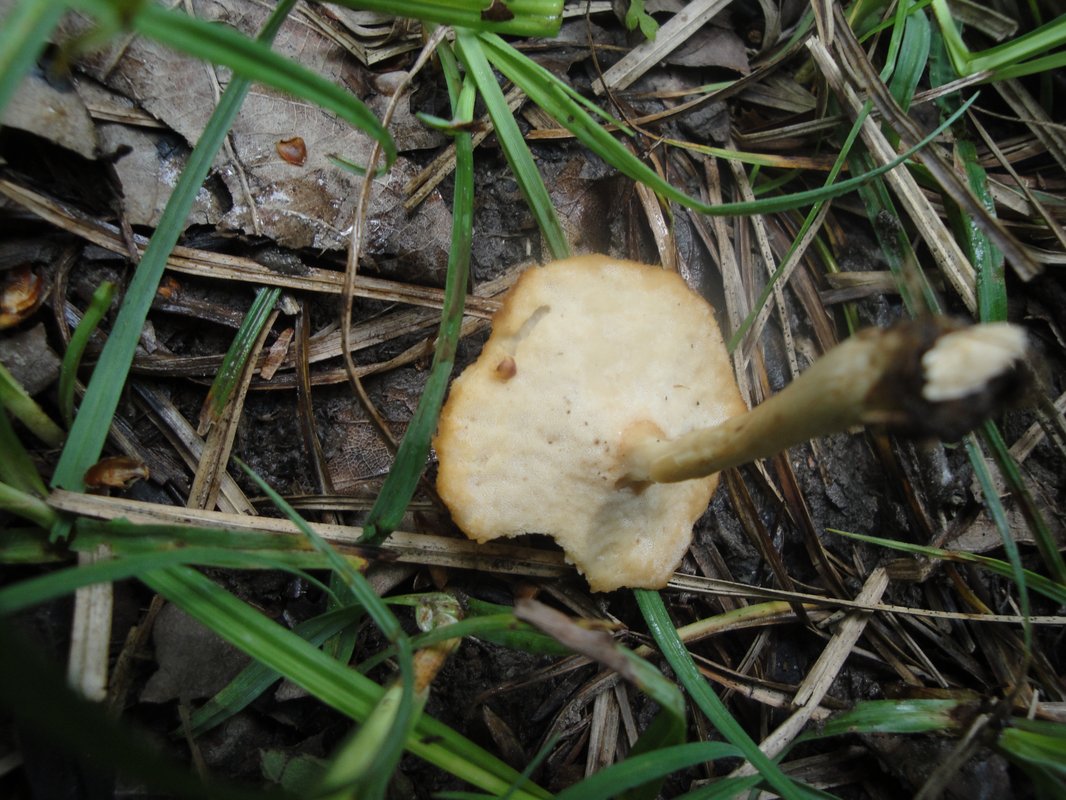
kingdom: Fungi
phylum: Basidiomycota
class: Agaricomycetes
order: Polyporales
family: Polyporaceae
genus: Lentinus
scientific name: Lentinus substrictus
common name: forårs-stilkporesvamp
